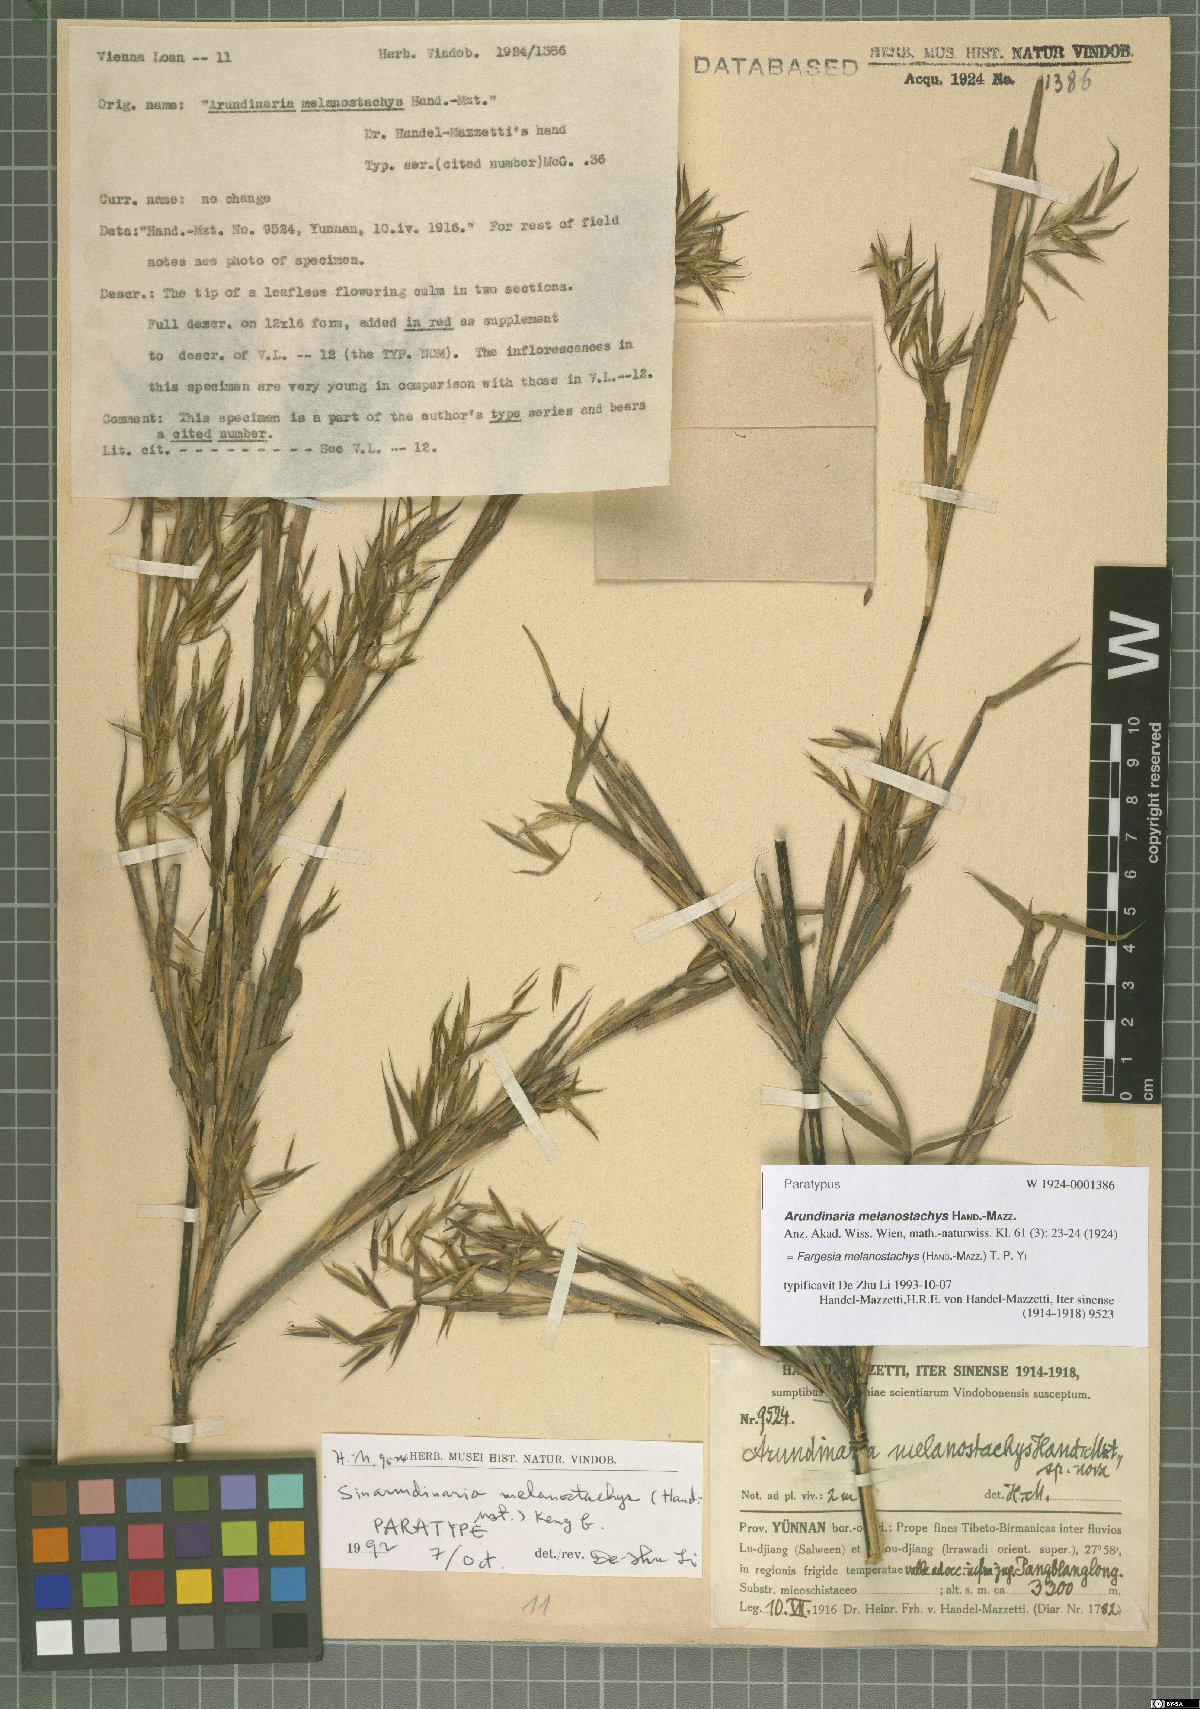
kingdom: Plantae
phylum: Tracheophyta
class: Liliopsida
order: Poales
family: Poaceae
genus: Fargesia
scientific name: Fargesia melanostachys
